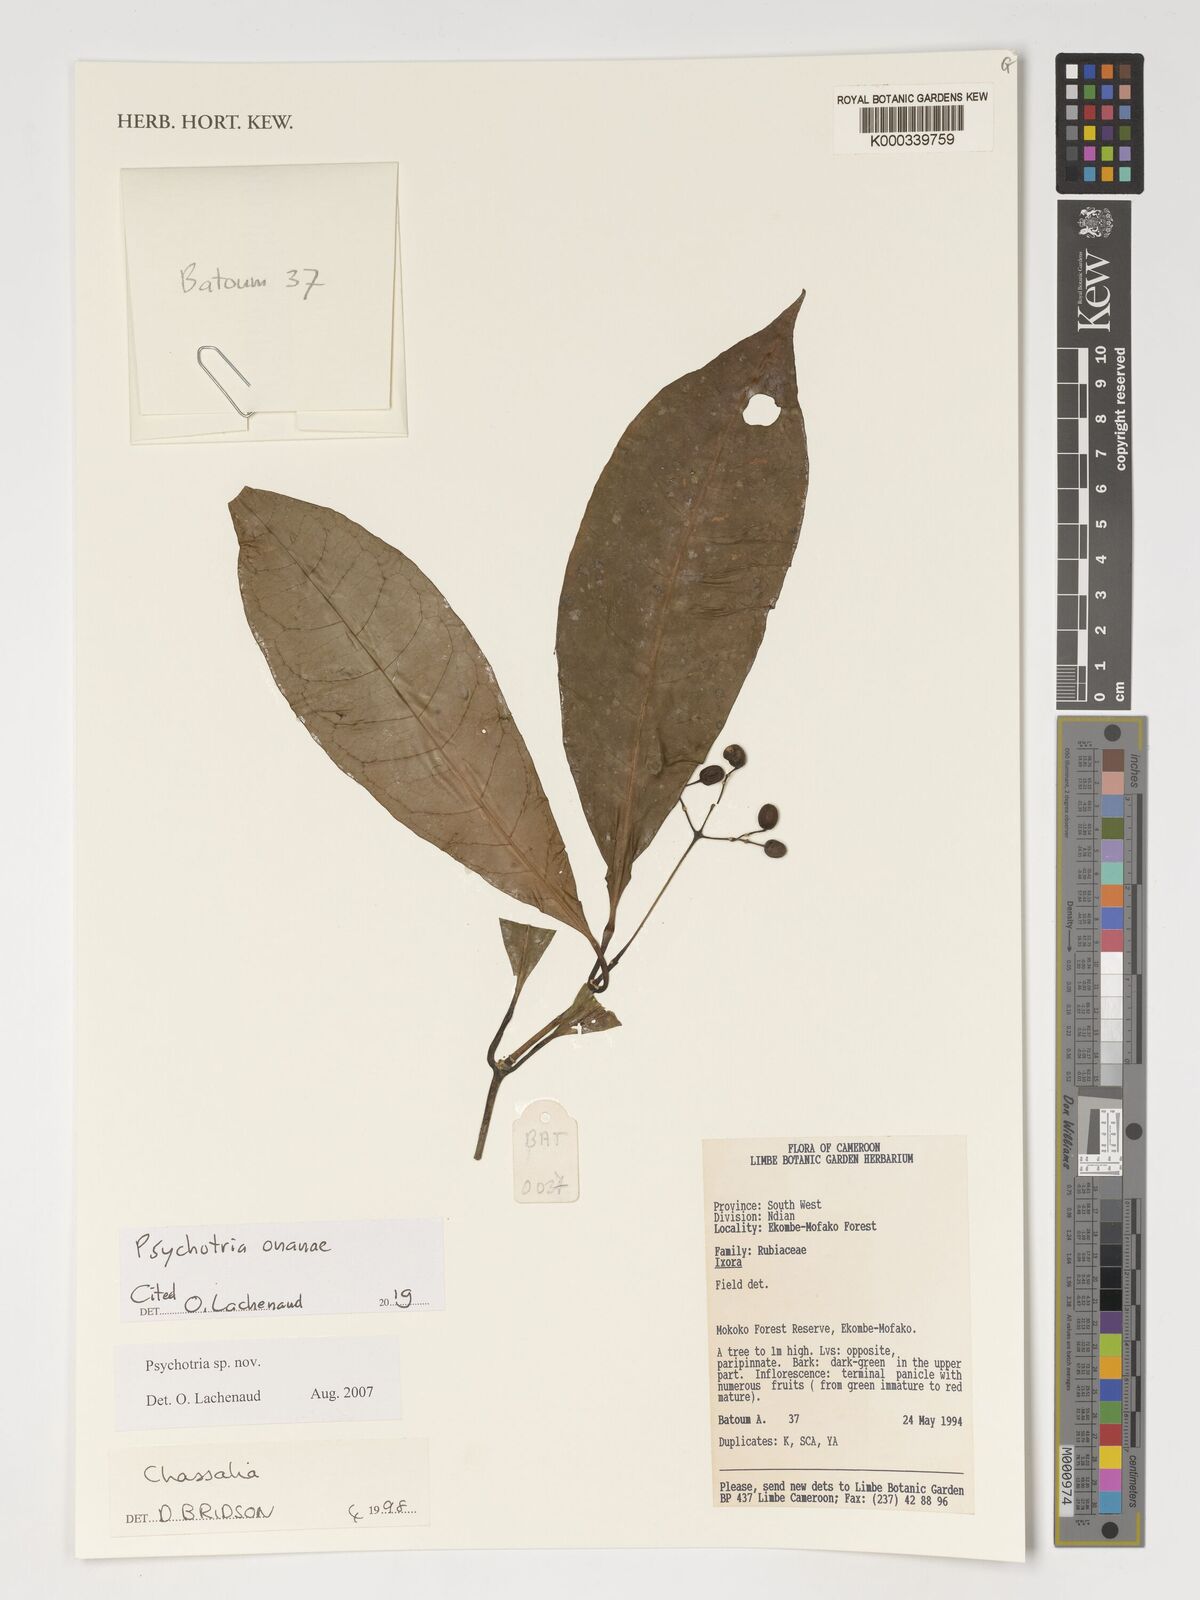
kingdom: Plantae
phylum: Tracheophyta
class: Magnoliopsida
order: Gentianales
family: Rubiaceae
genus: Psychotria
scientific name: Psychotria onanae
